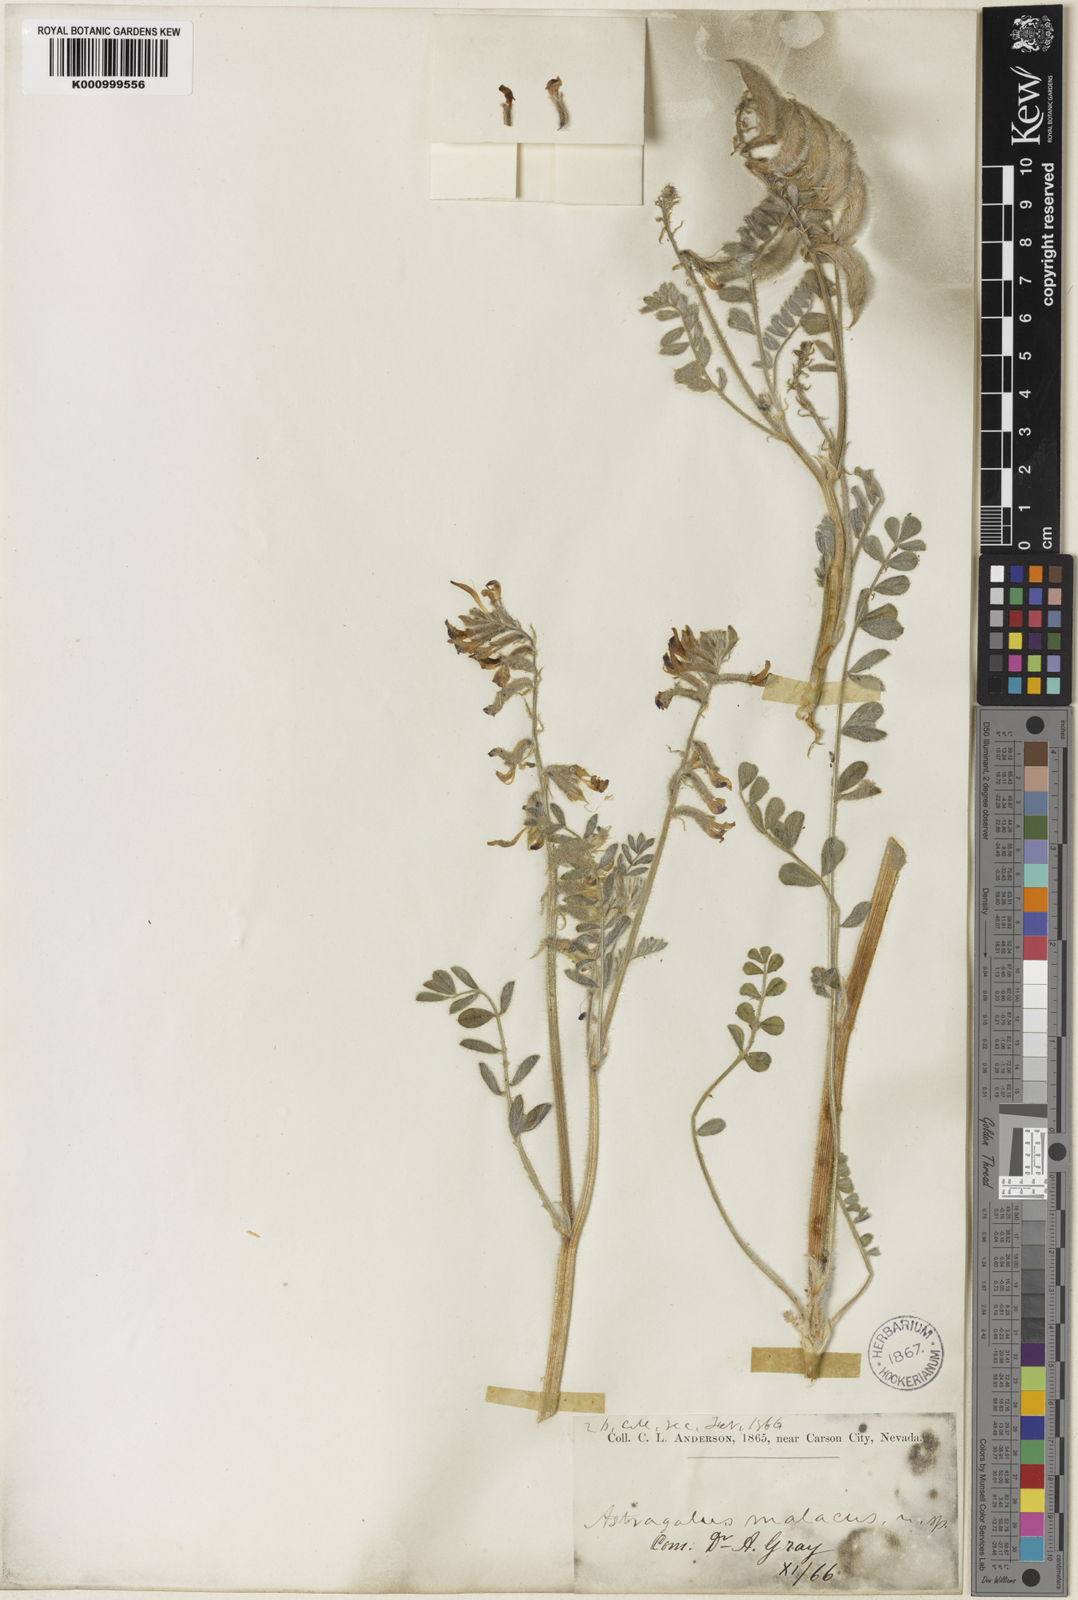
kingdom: Plantae
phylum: Tracheophyta
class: Magnoliopsida
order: Fabales
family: Fabaceae
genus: Astragalus
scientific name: Astragalus malacus
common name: Shaggy milk-vetch
